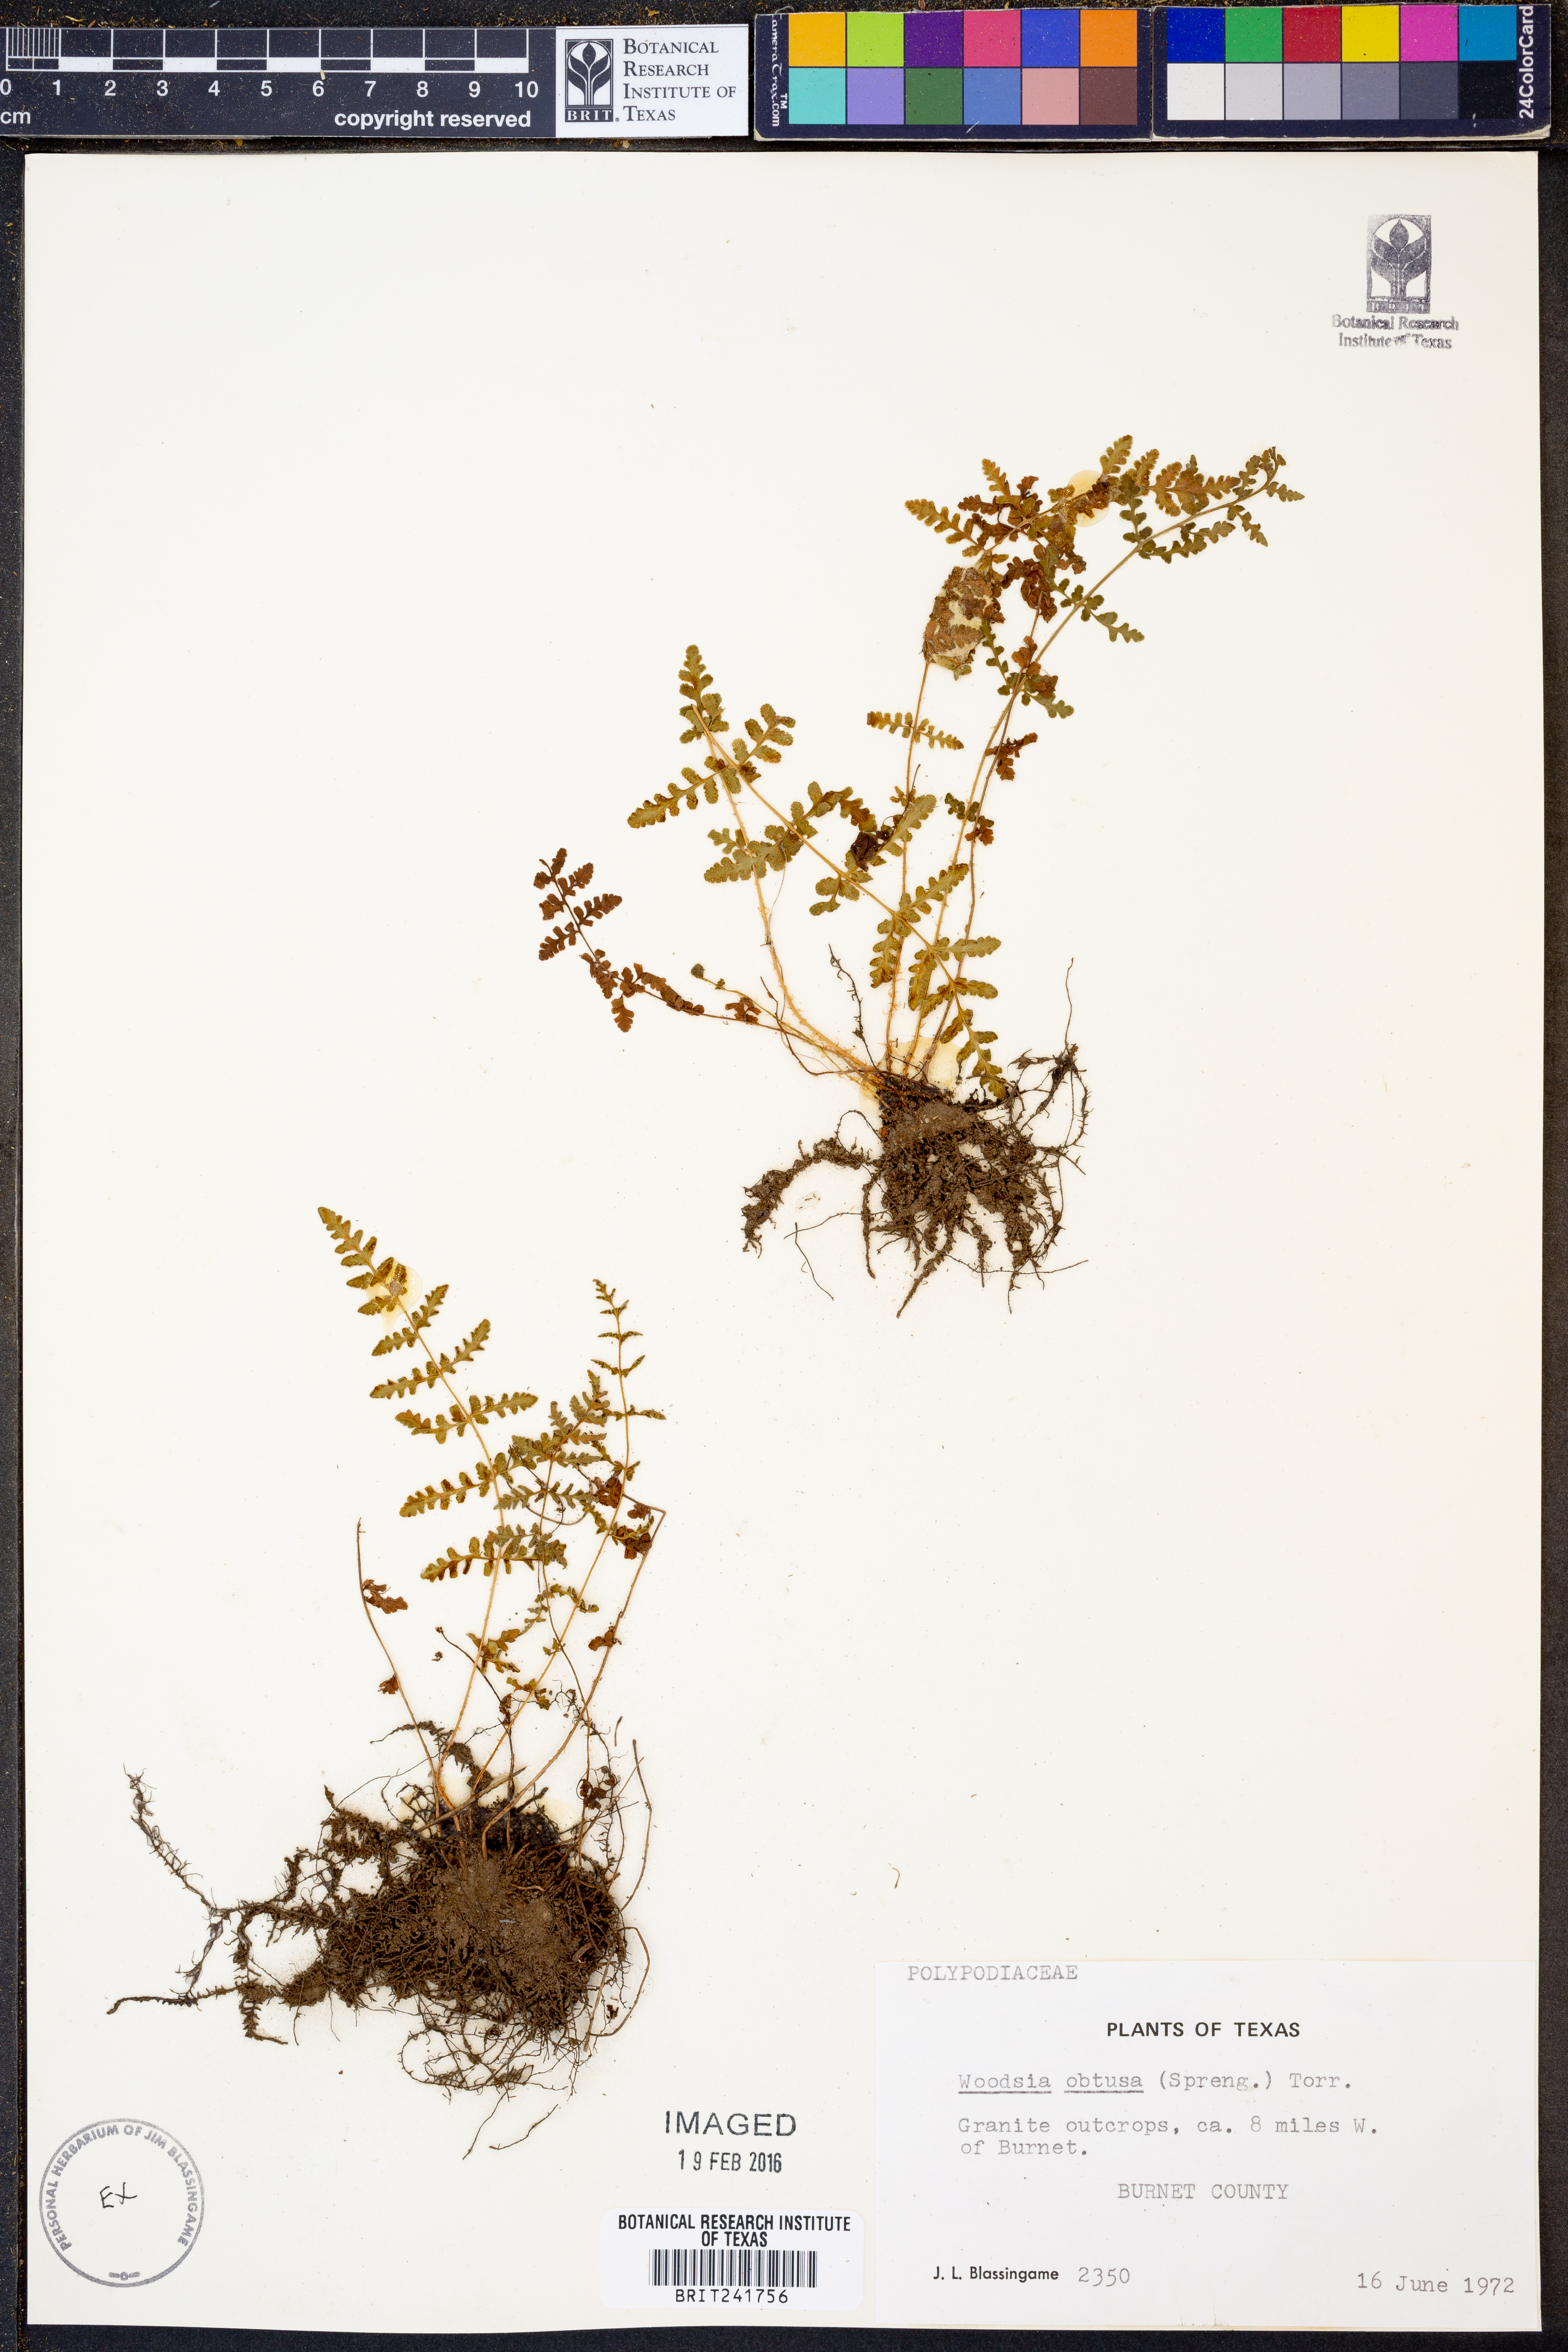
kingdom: Plantae
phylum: Tracheophyta
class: Polypodiopsida
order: Polypodiales
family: Woodsiaceae
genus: Physematium
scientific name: Physematium obtusum
